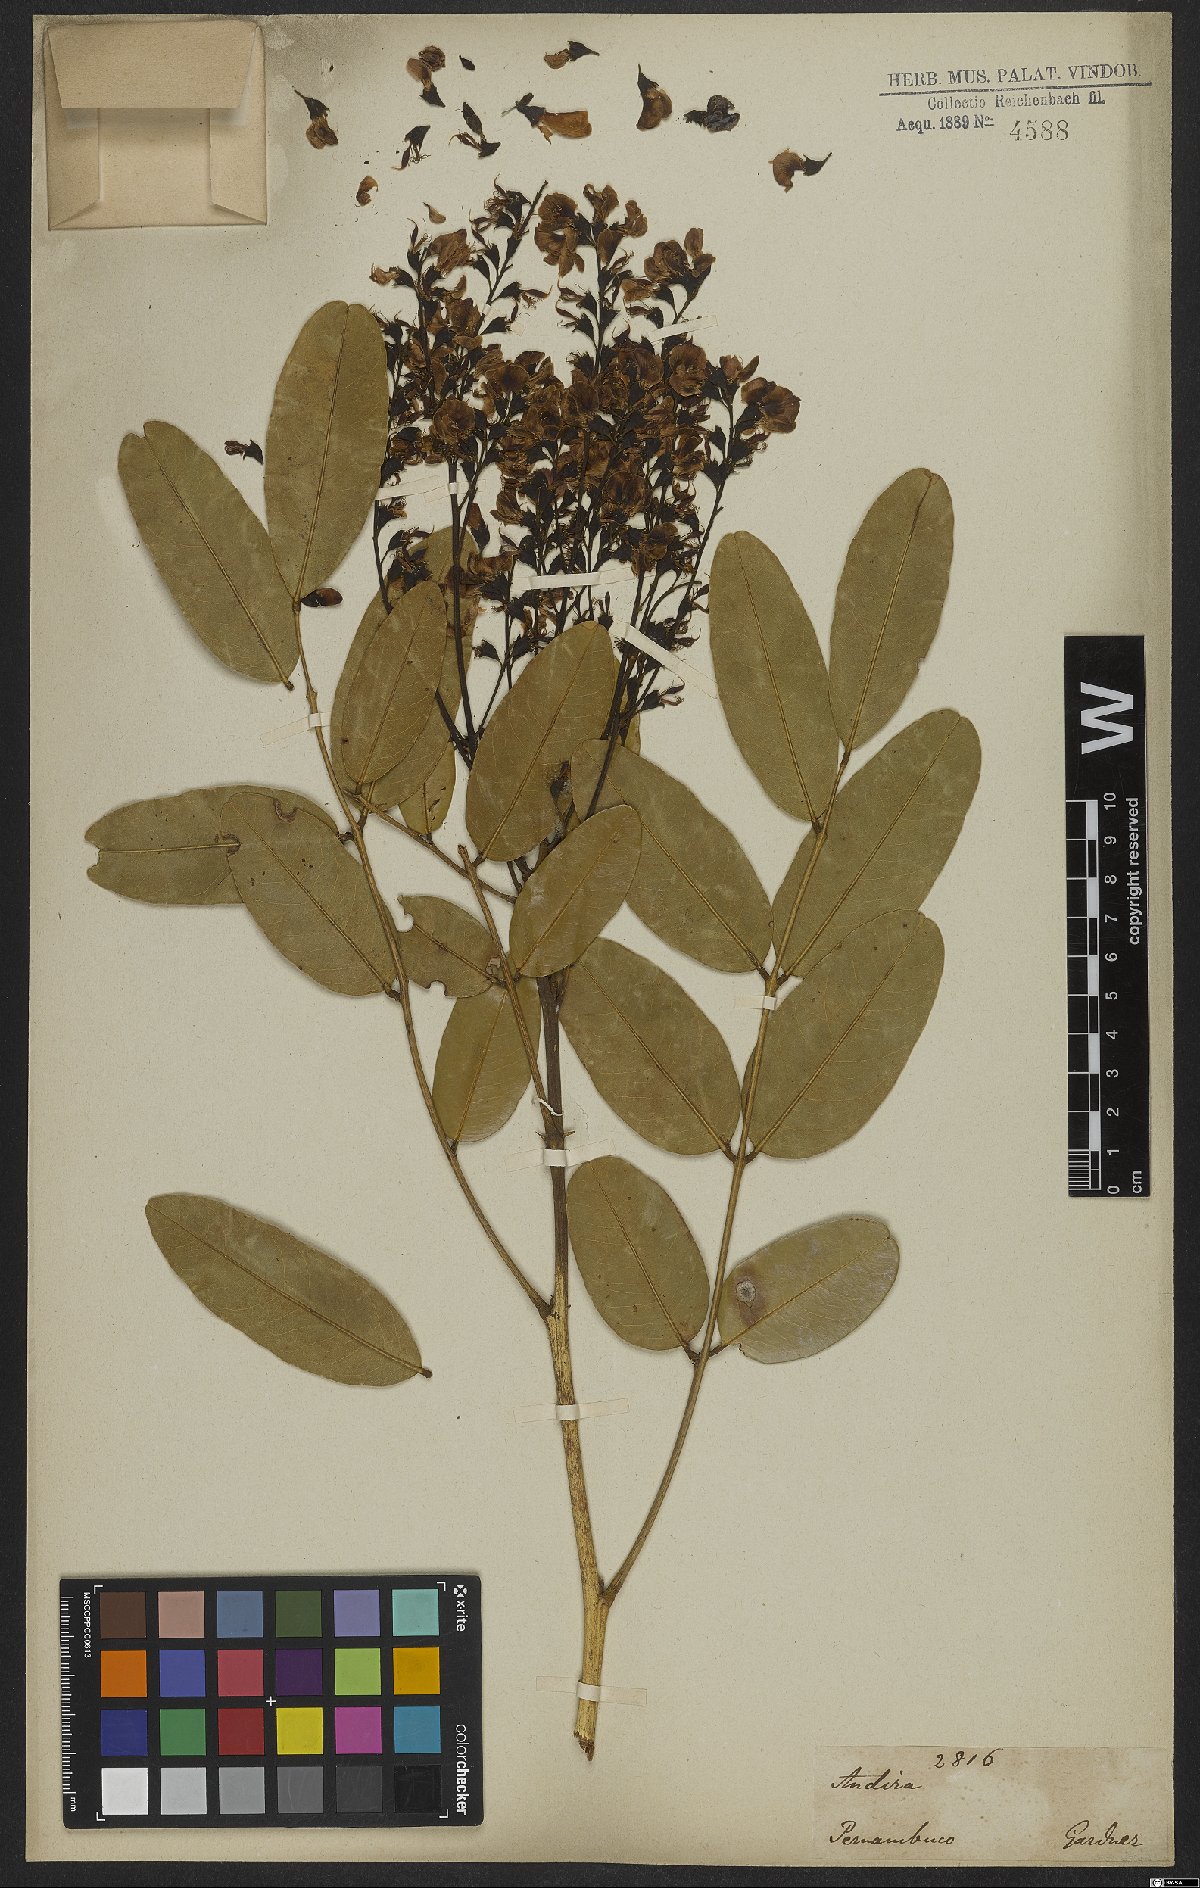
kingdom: Plantae
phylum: Tracheophyta
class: Magnoliopsida
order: Fabales
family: Fabaceae
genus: Andira
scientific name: Andira
